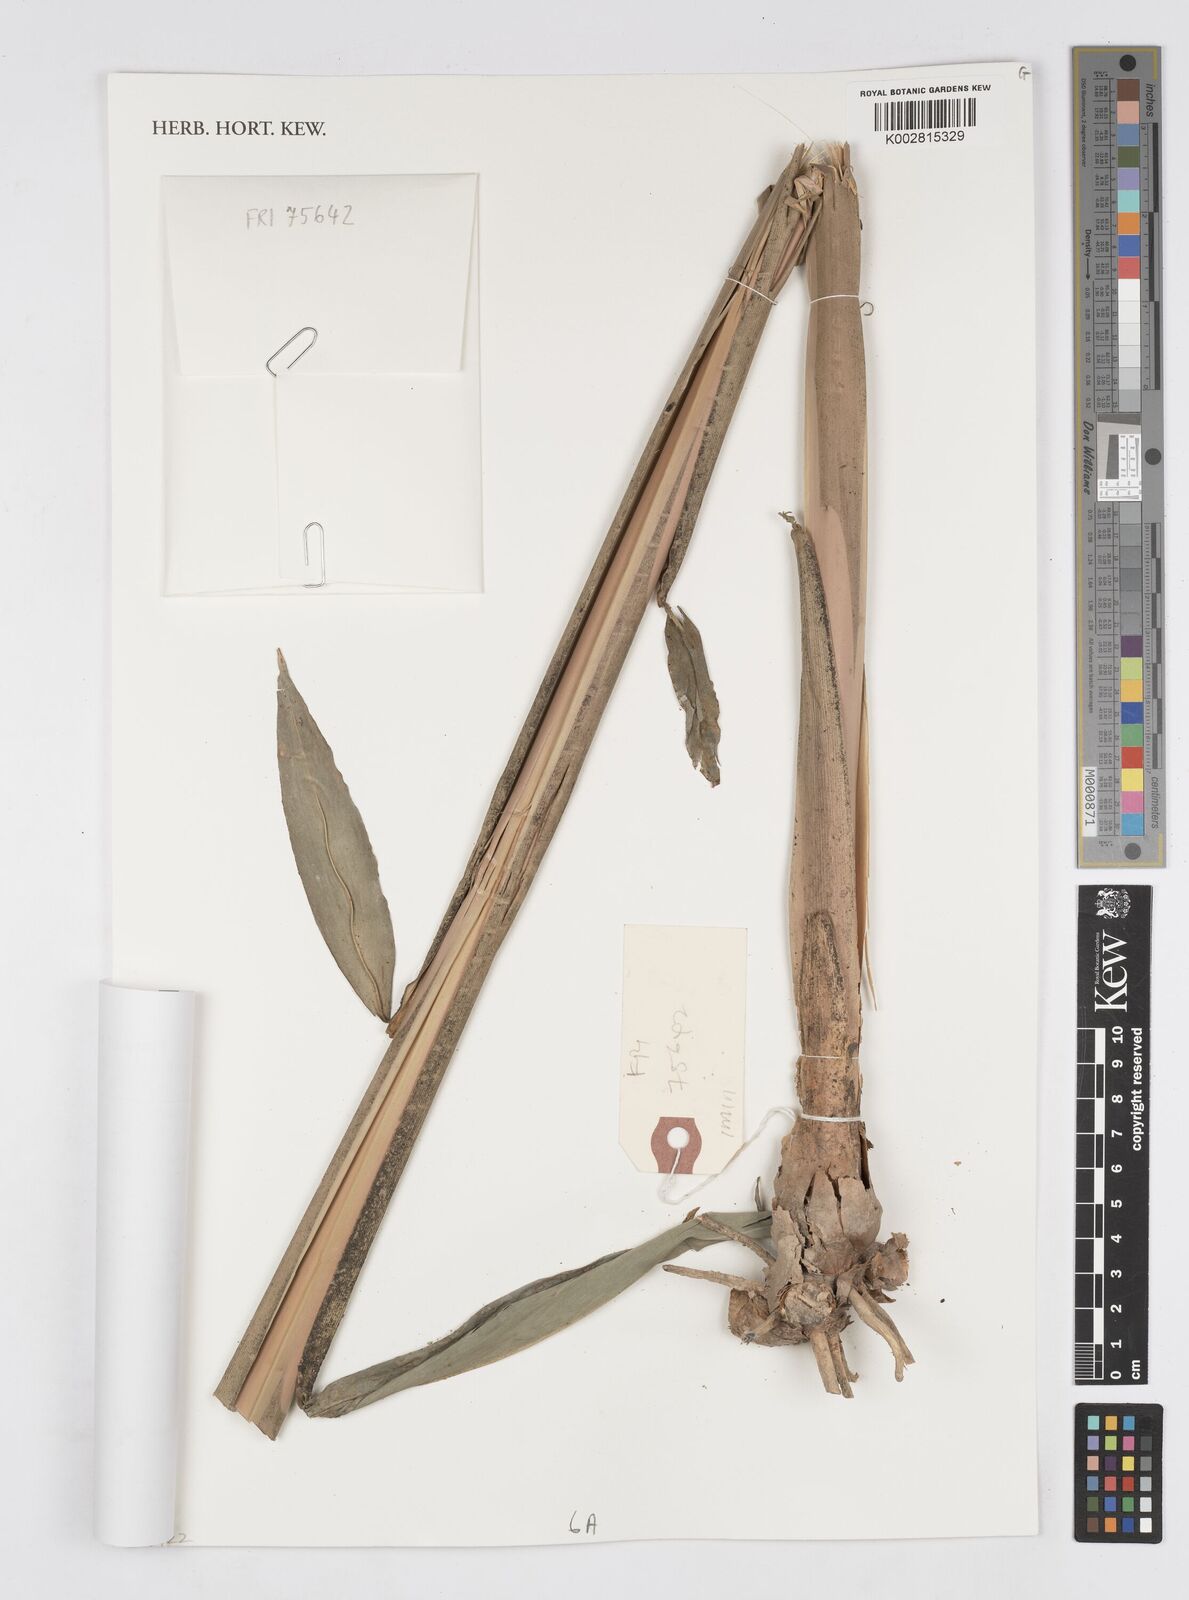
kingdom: Plantae
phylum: Tracheophyta
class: Liliopsida
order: Zingiberales
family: Zingiberaceae
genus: Alpinia
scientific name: Alpinia
